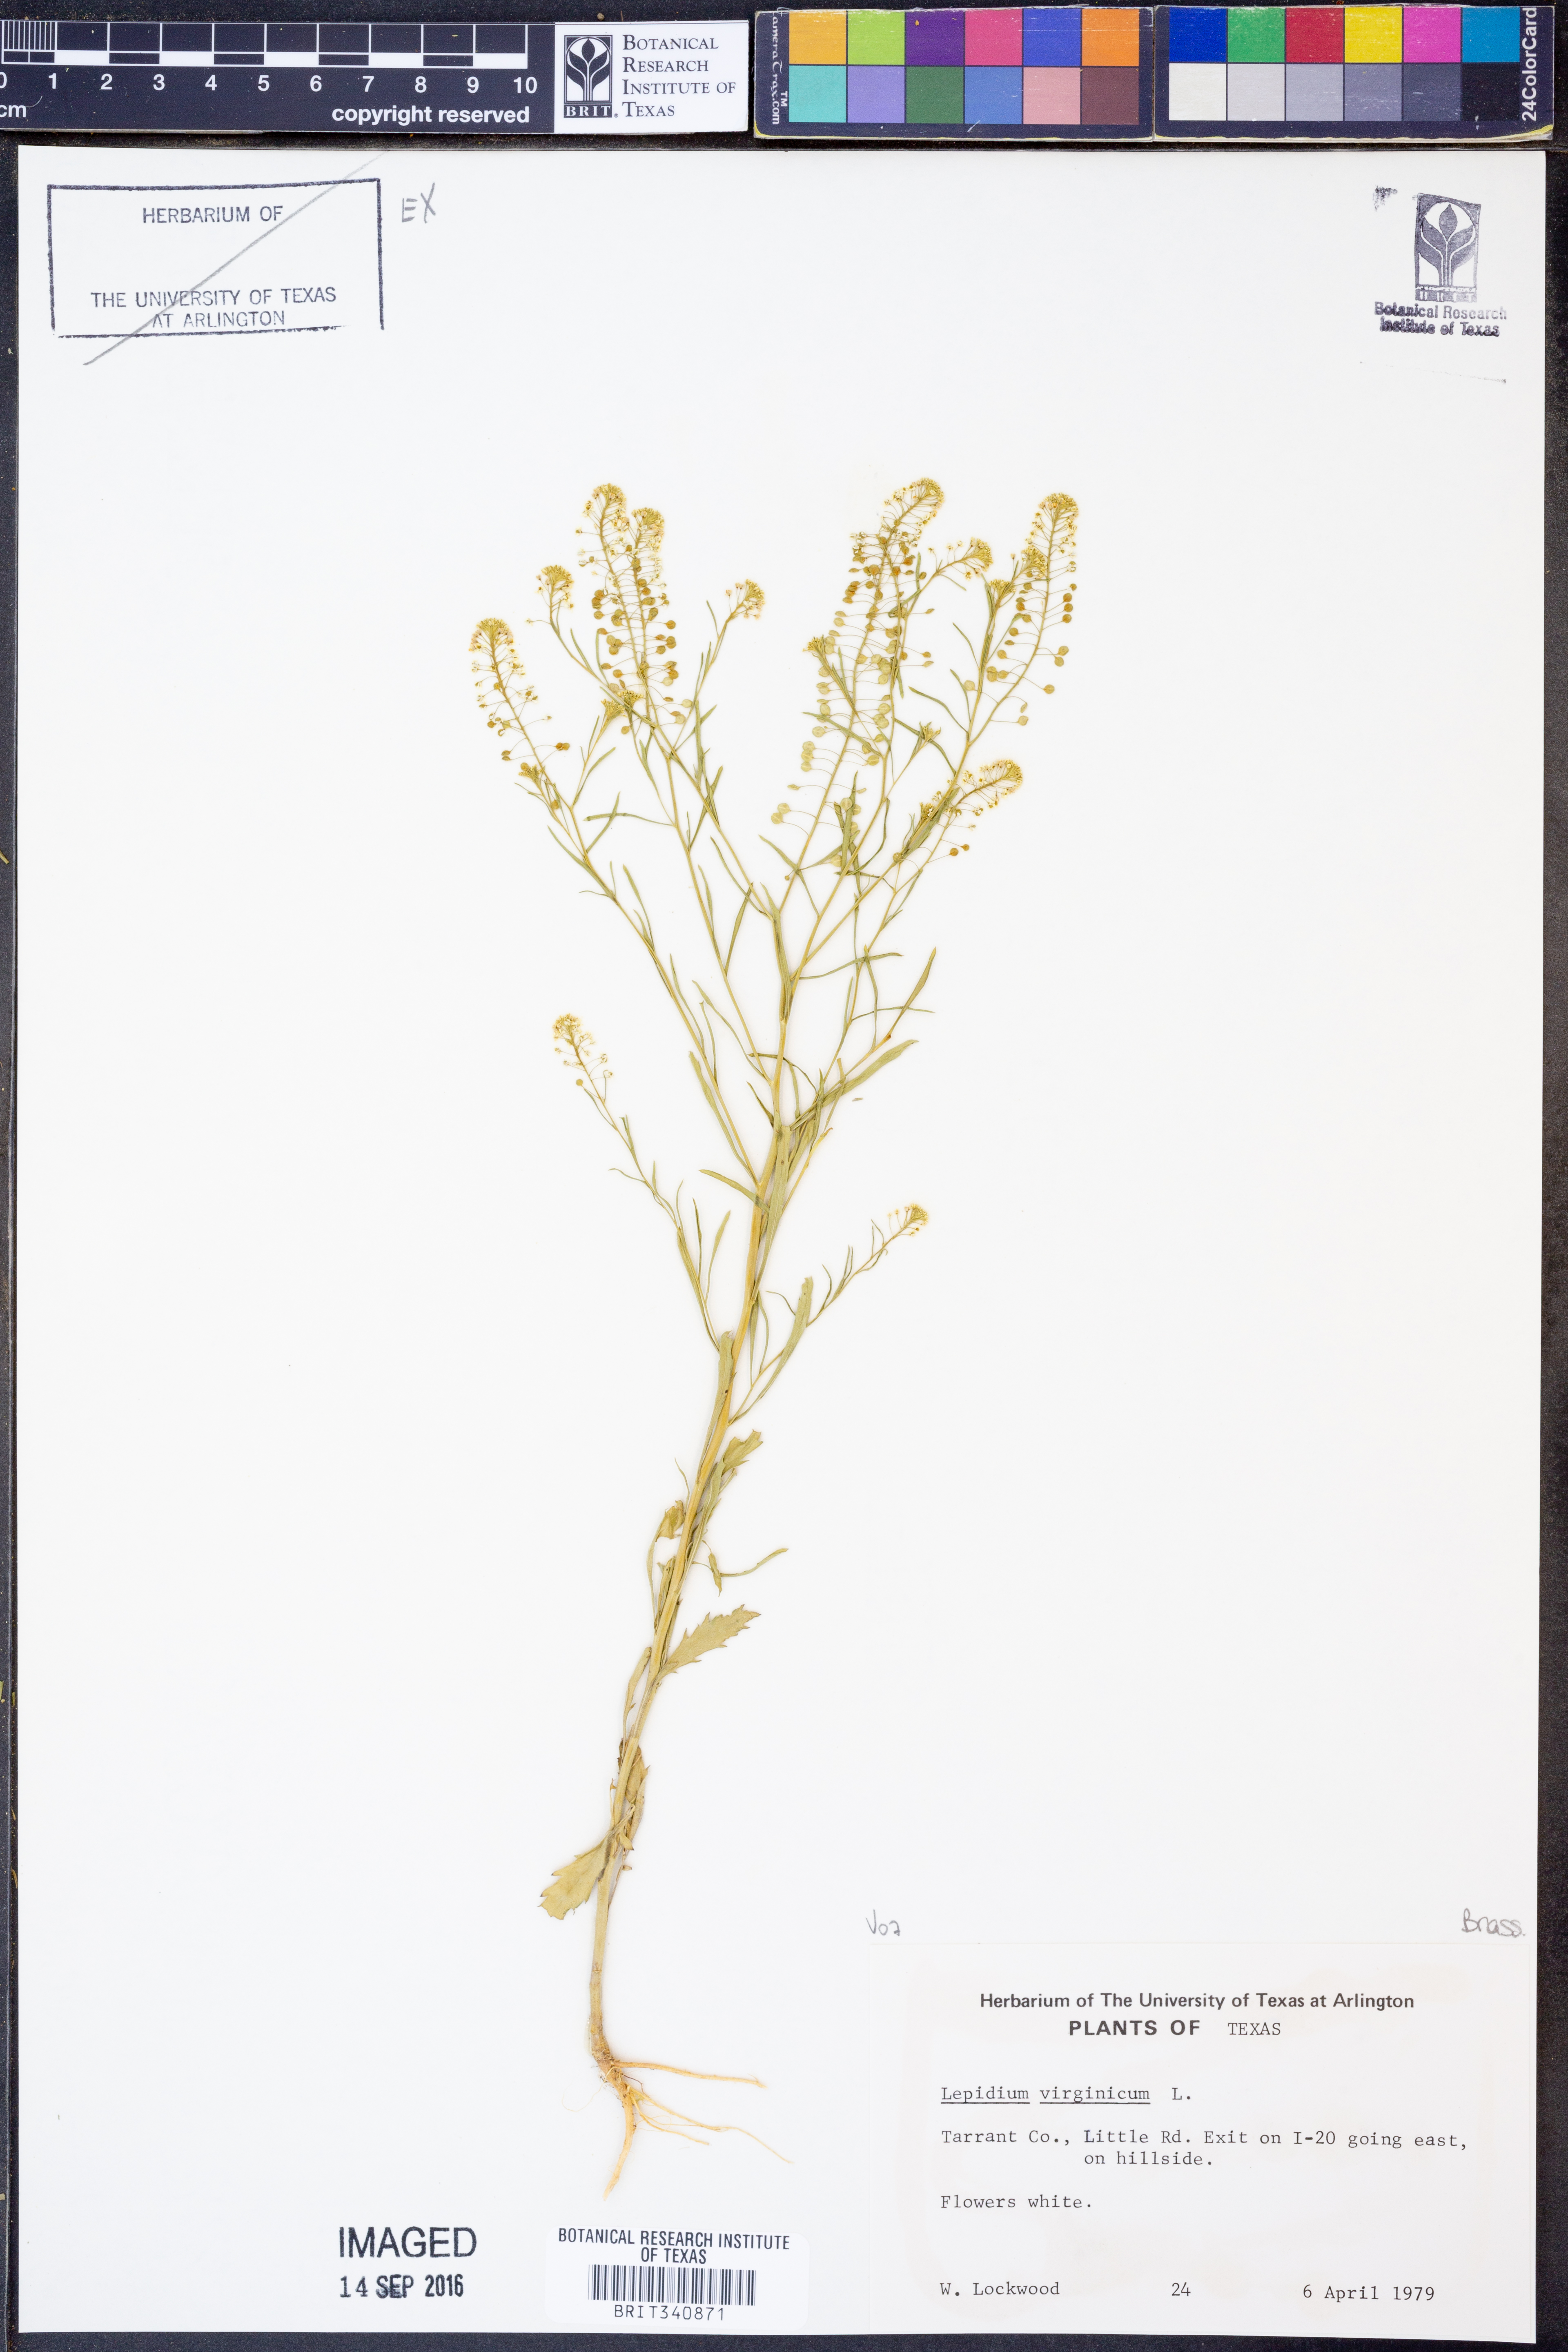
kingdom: Plantae
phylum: Tracheophyta
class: Magnoliopsida
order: Brassicales
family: Brassicaceae
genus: Lepidium
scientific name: Lepidium virginicum
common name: Least pepperwort
